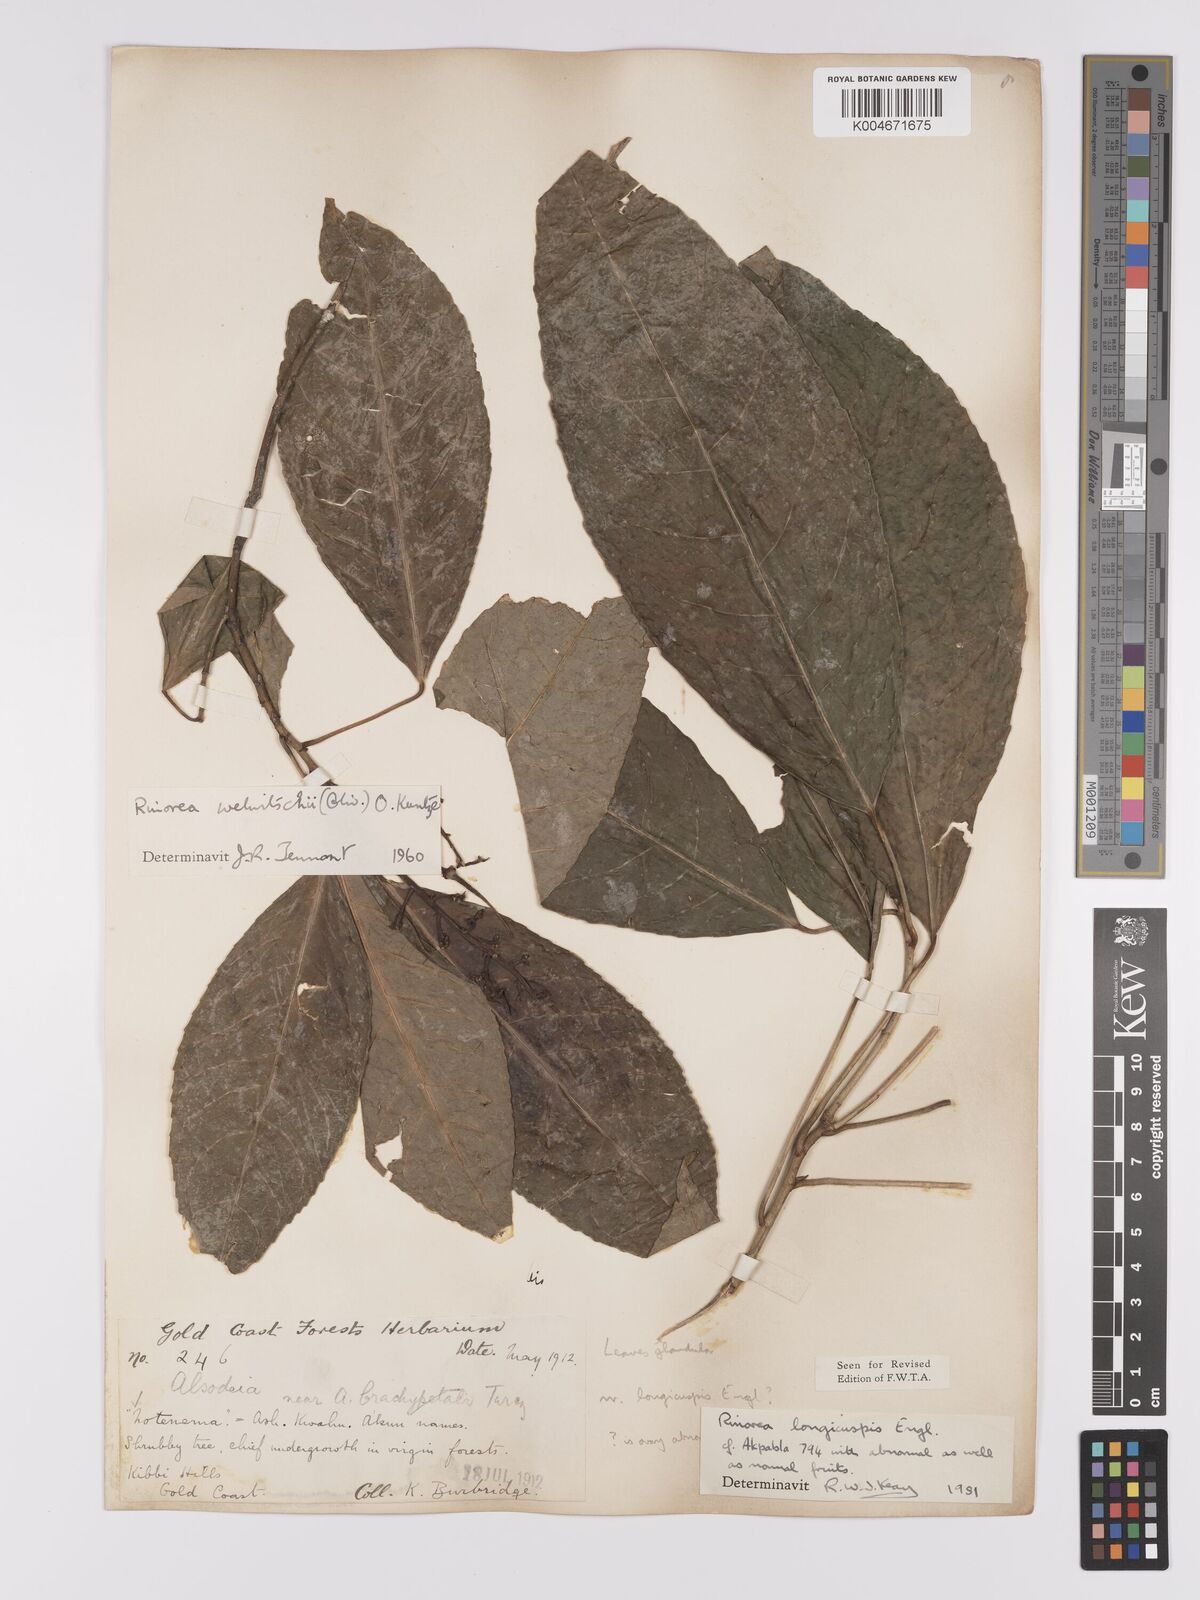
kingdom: Plantae
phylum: Tracheophyta
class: Magnoliopsida
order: Malpighiales
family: Violaceae
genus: Rinorea
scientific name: Rinorea welwitschii
